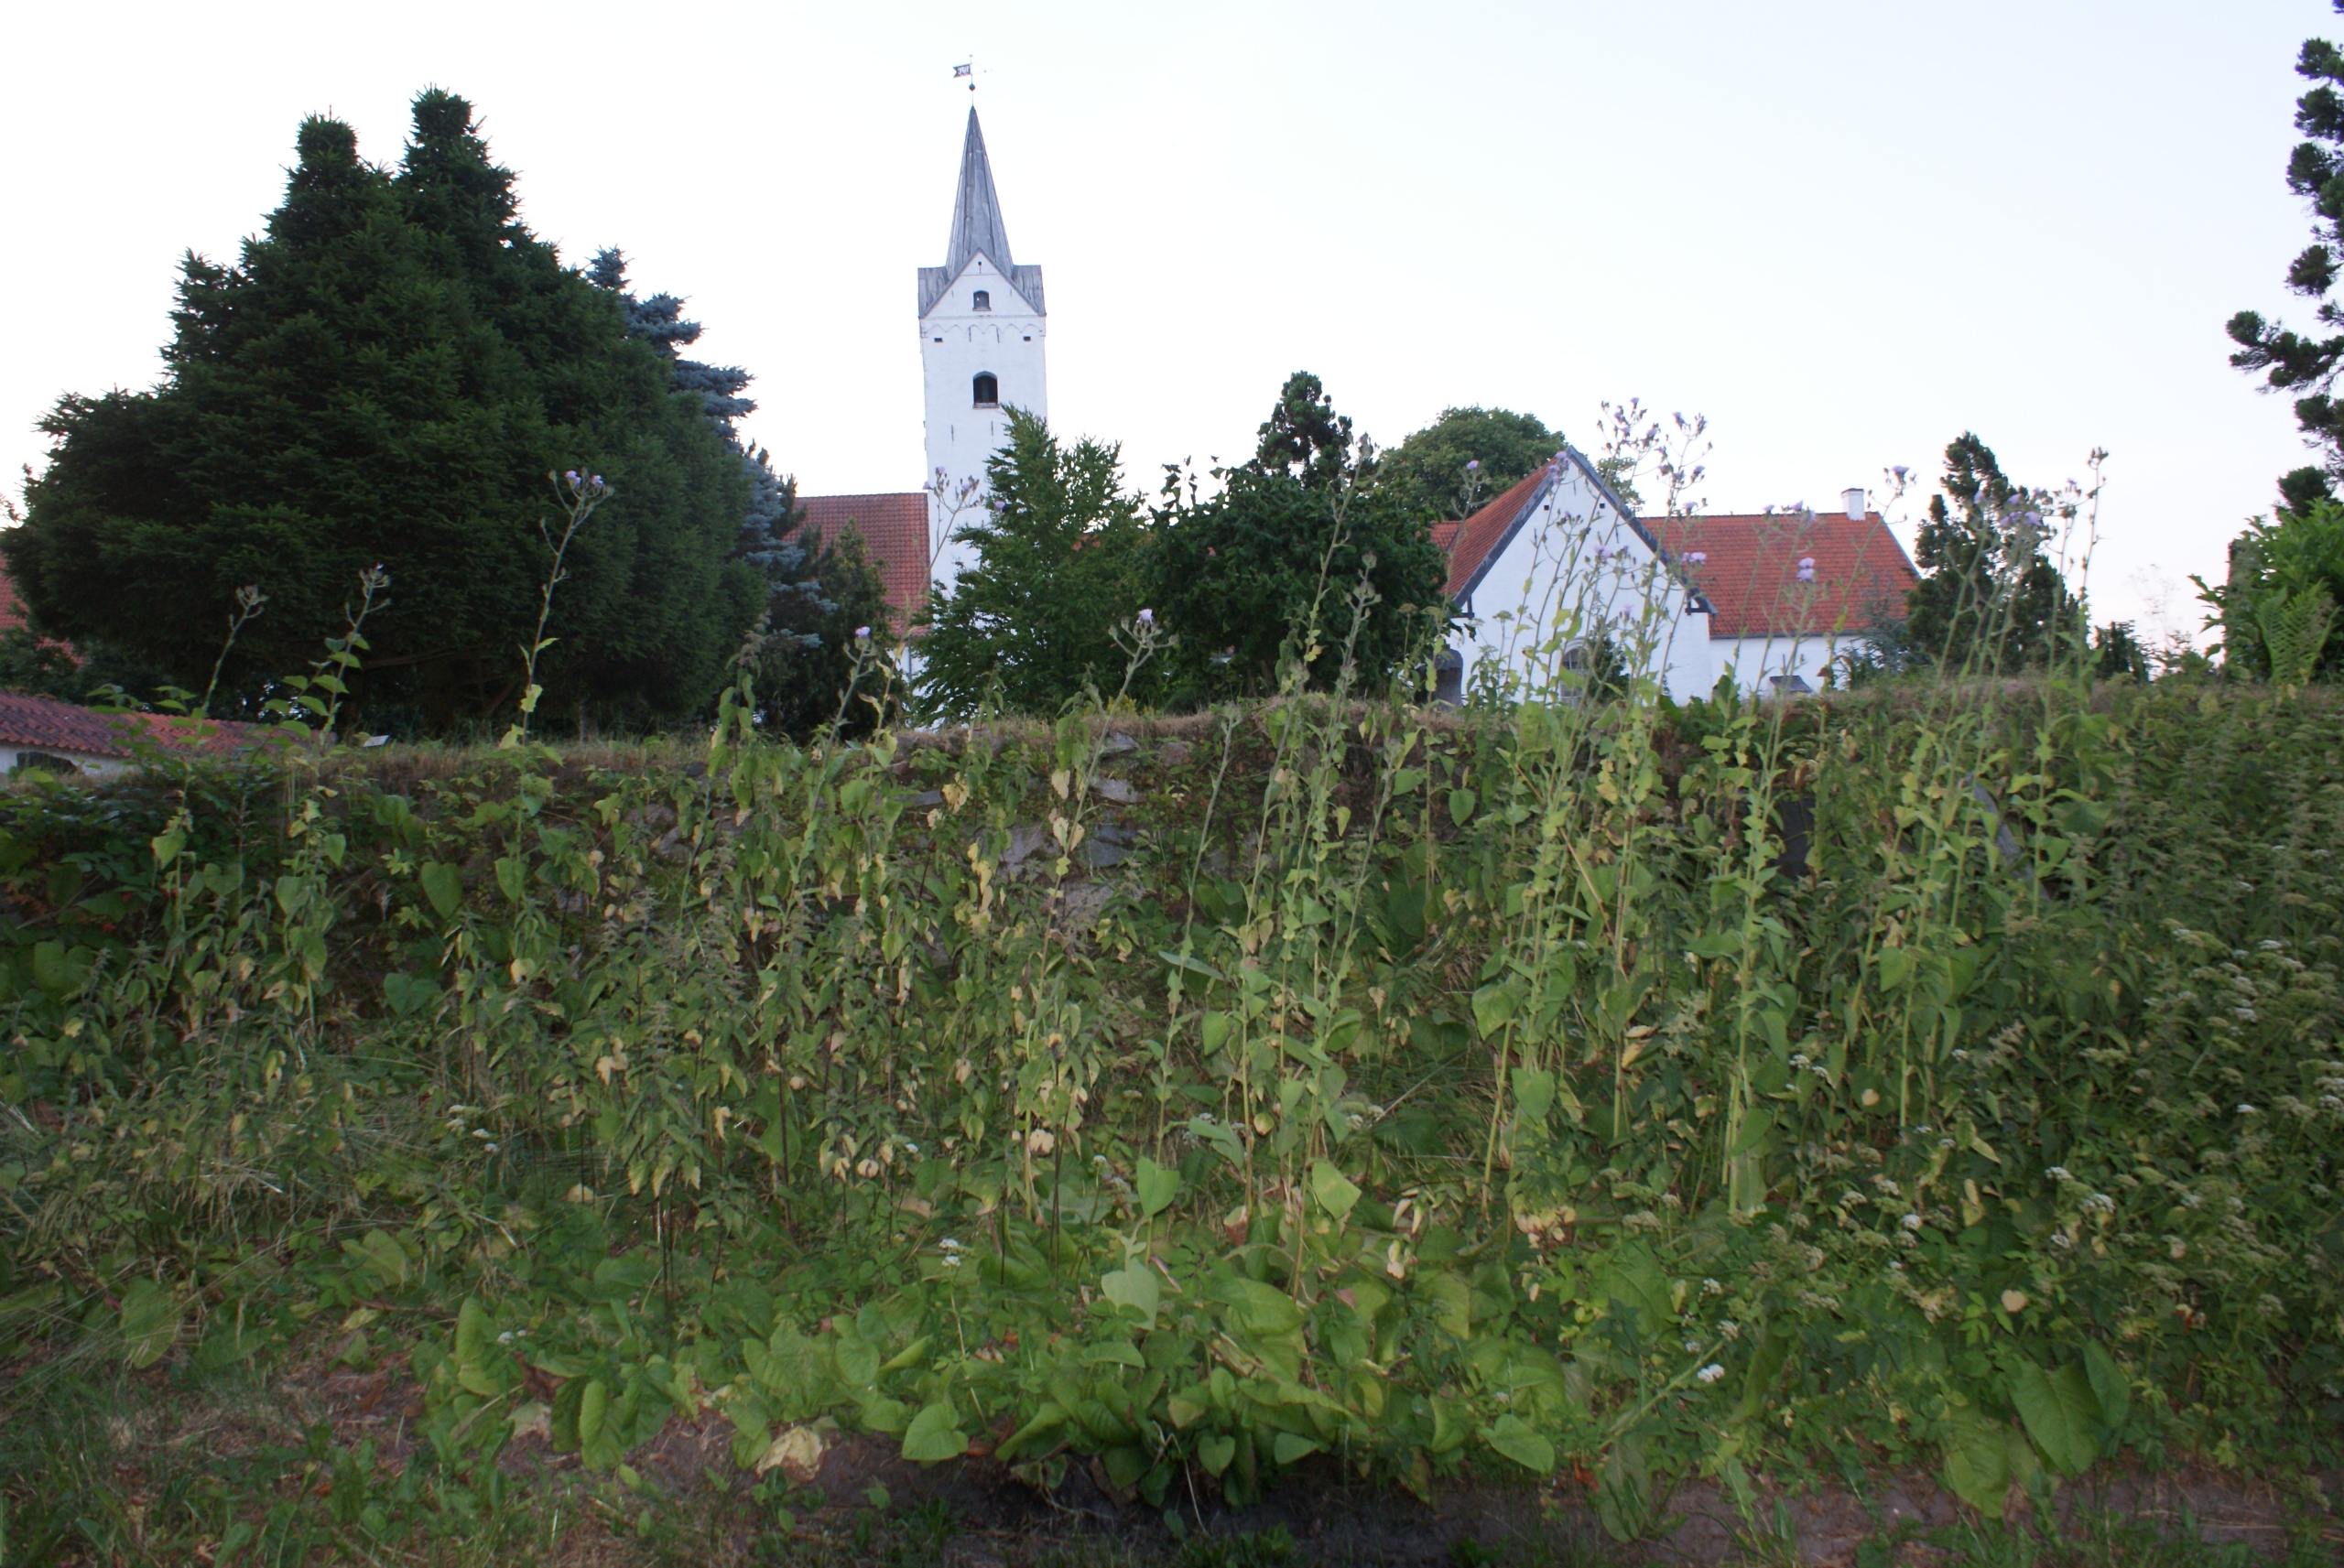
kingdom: Plantae
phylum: Tracheophyta
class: Magnoliopsida
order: Asterales
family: Asteraceae
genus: Lactuca
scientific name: Lactuca macrophylla
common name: Kæmpe-salat
